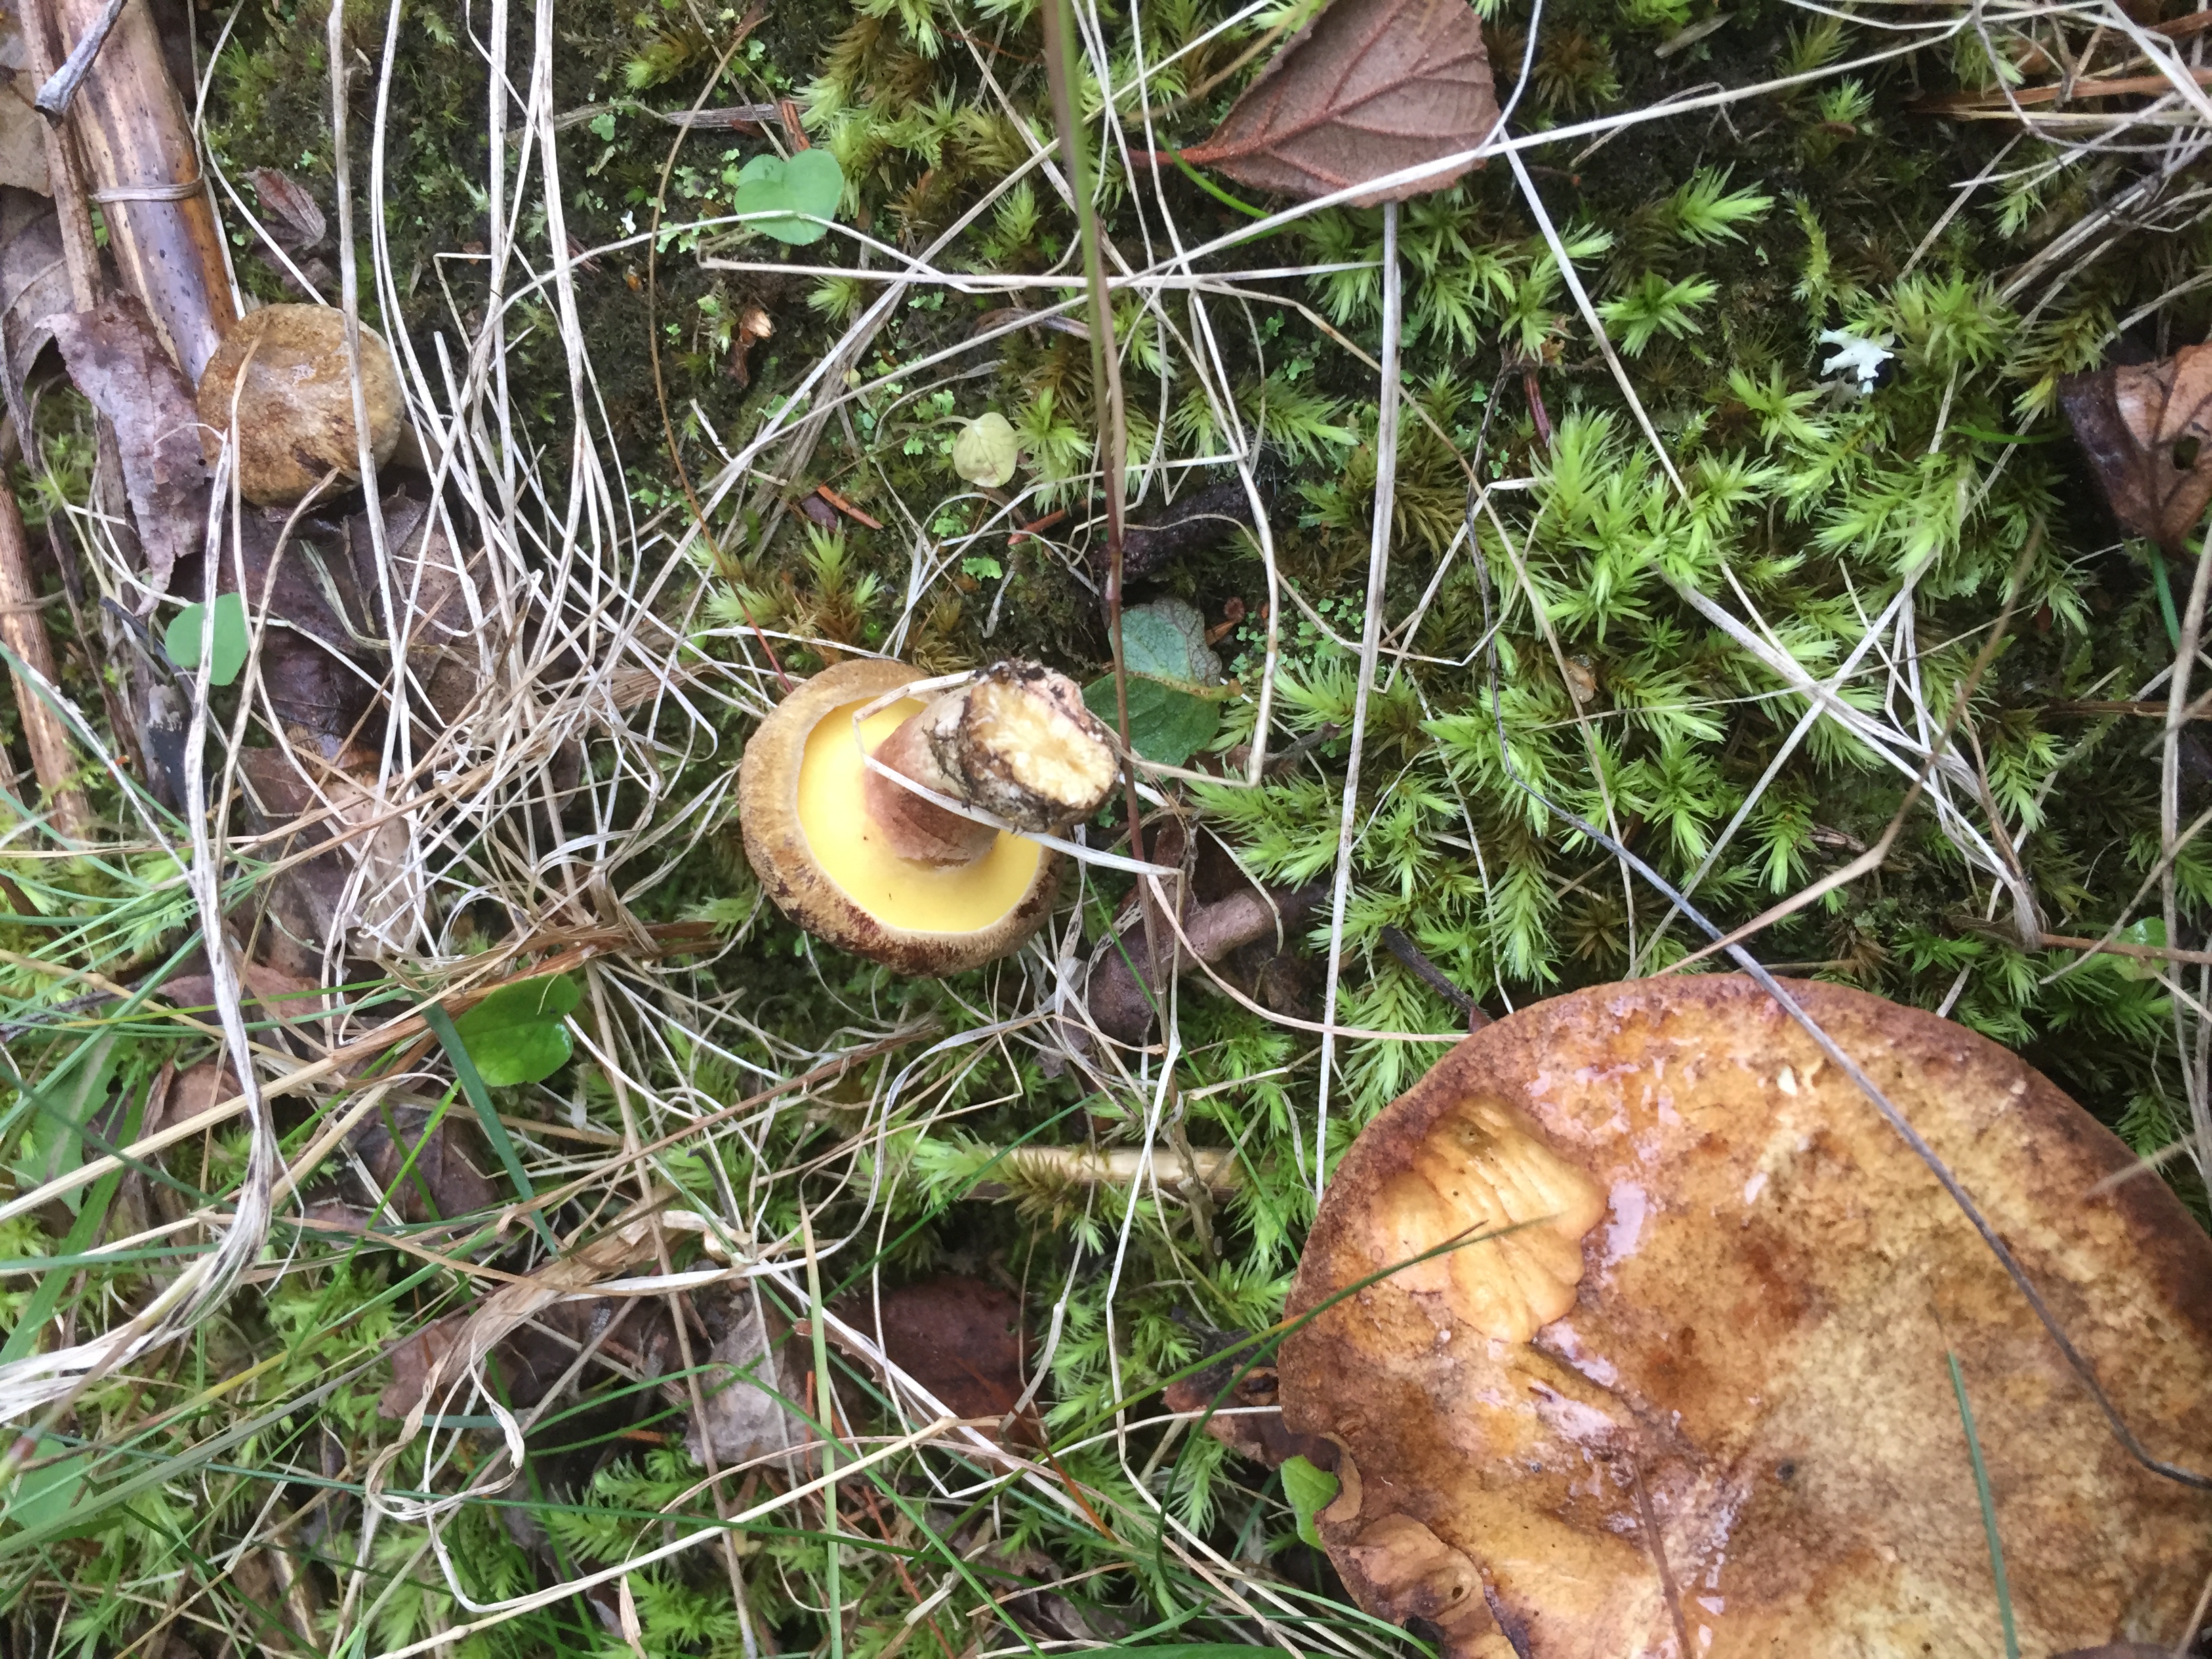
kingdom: Fungi
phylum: Basidiomycota
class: Agaricomycetes
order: Boletales
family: Paxillaceae
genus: Gyrodon
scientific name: Gyrodon lividus
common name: Alder bolete
